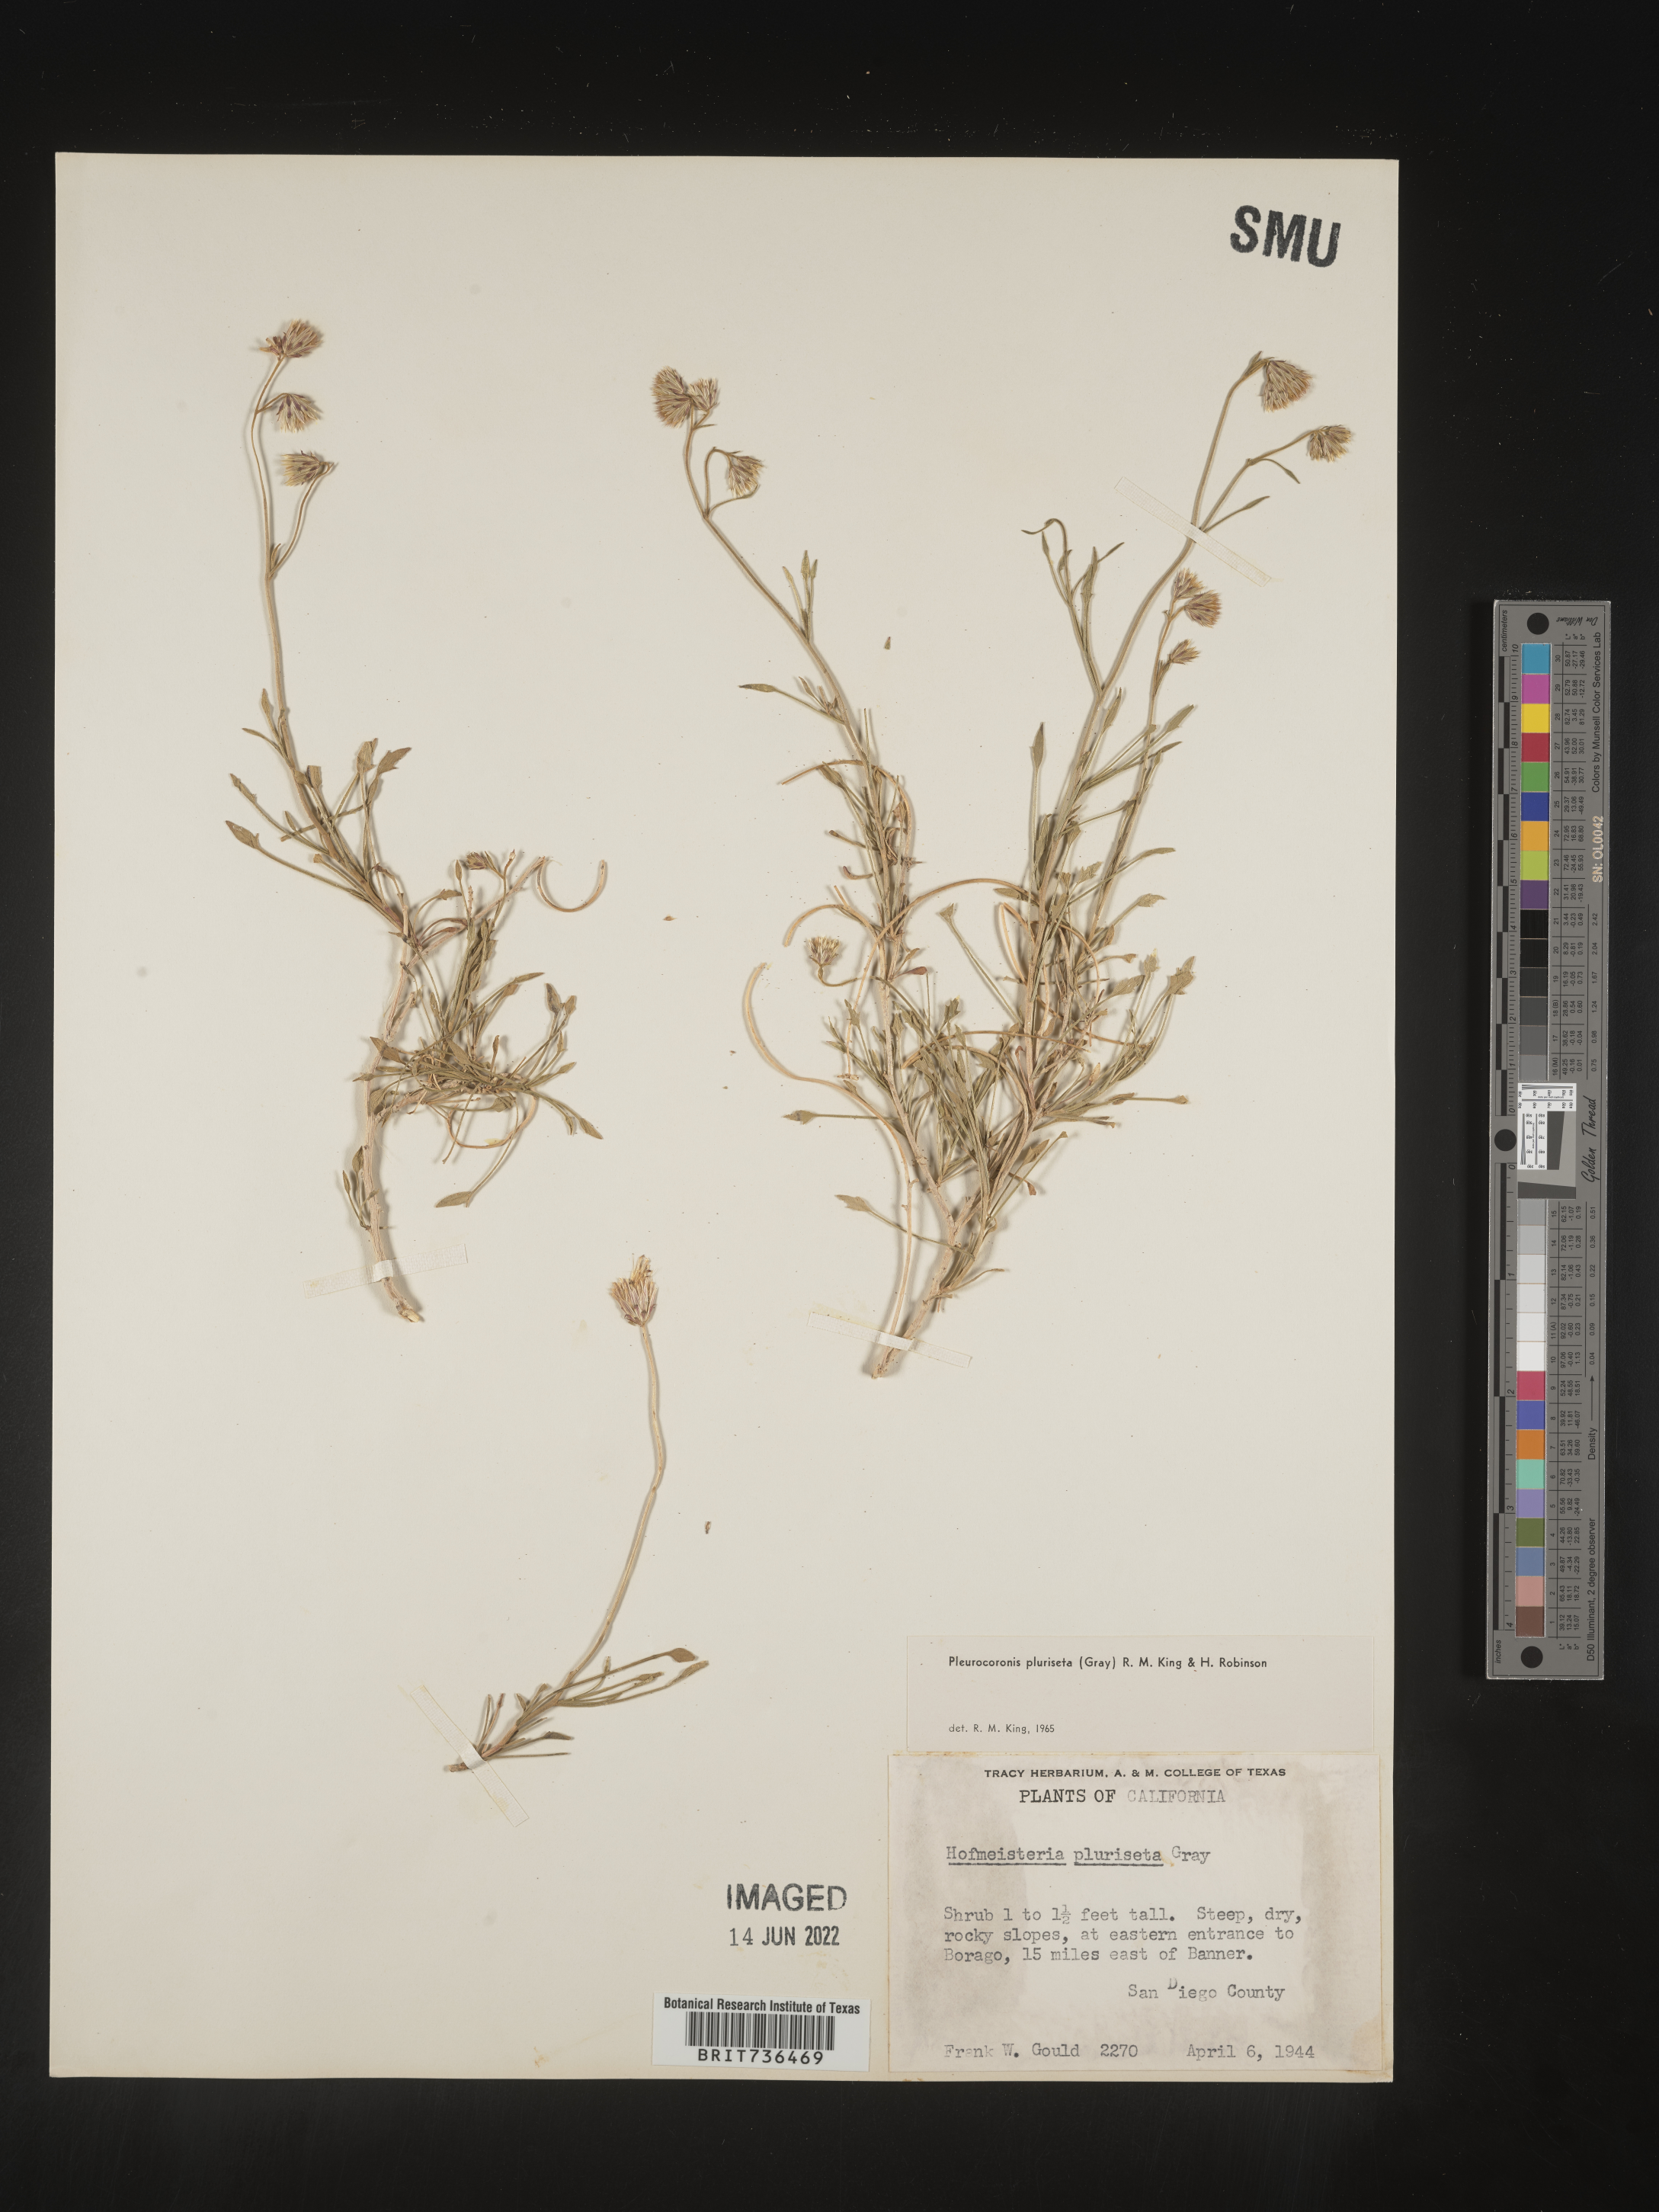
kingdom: Plantae
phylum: Tracheophyta
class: Magnoliopsida
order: Asterales
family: Asteraceae
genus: Pleurocoronis
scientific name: Pleurocoronis
